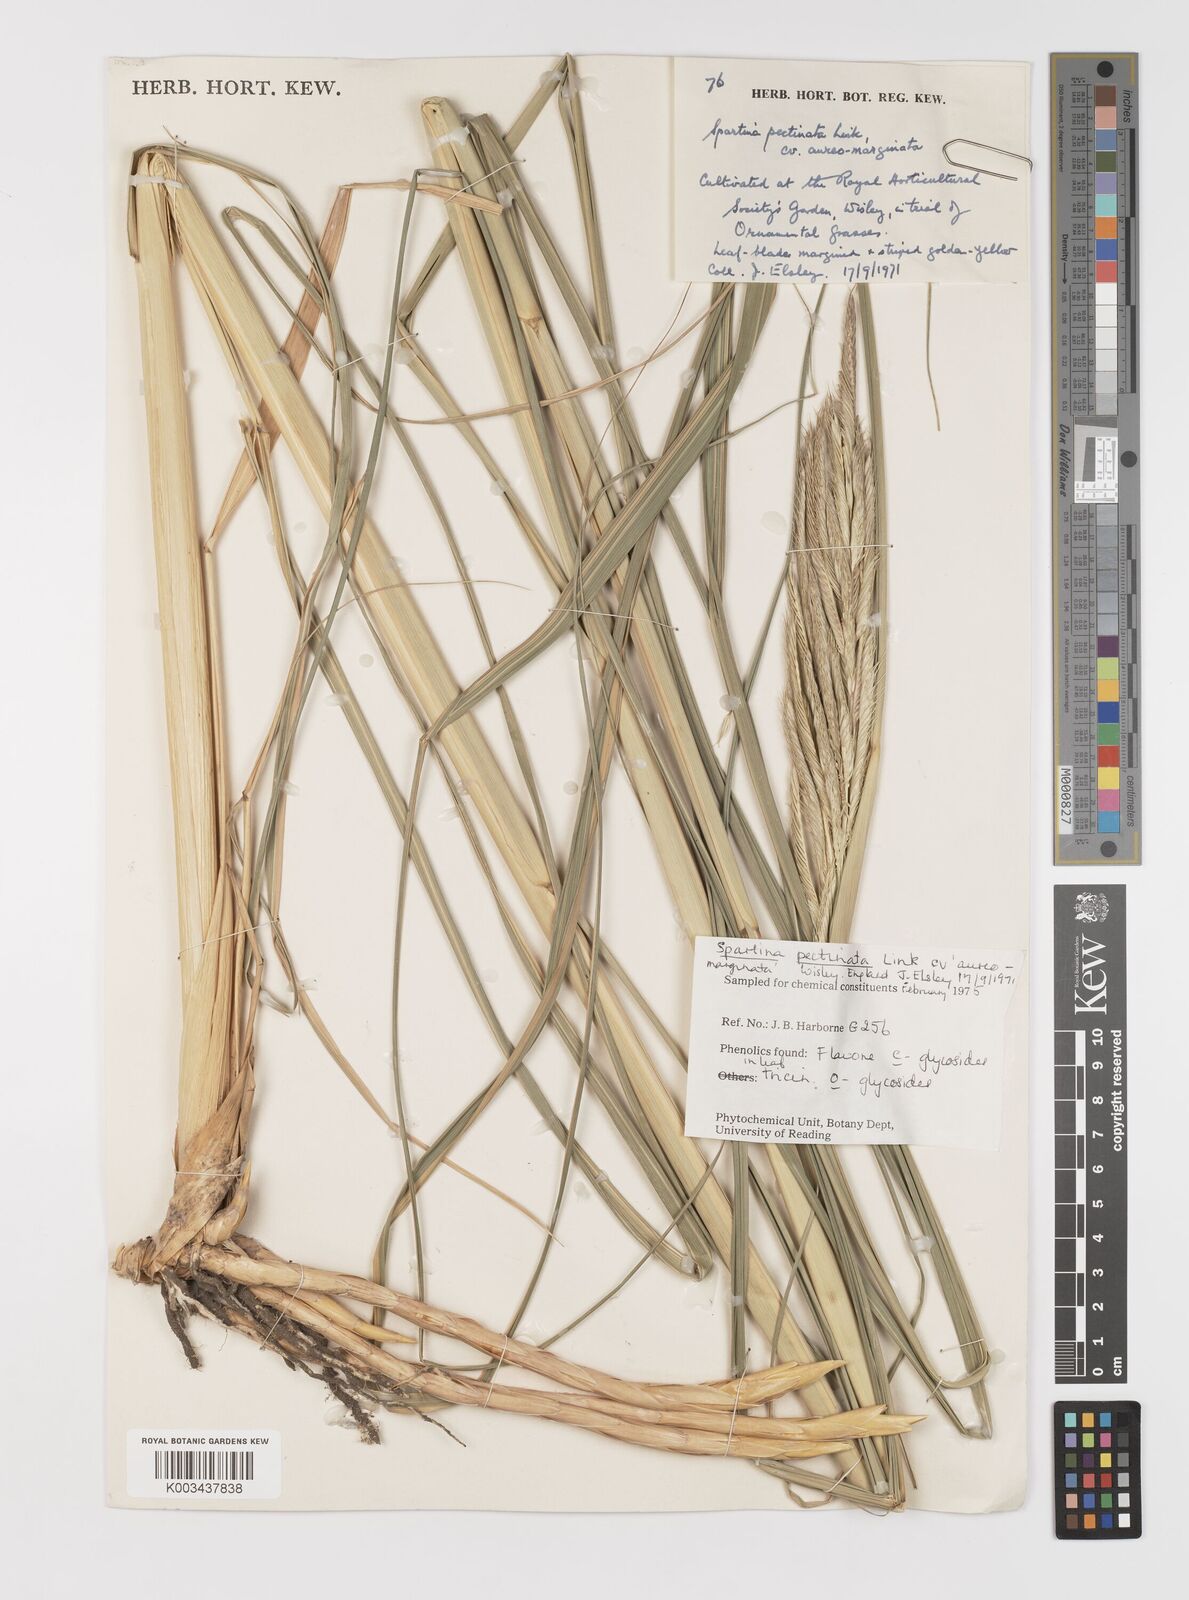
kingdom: Plantae
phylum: Tracheophyta
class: Liliopsida
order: Poales
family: Poaceae
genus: Sporobolus
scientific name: Sporobolus michauxianus
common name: Freshwater cordgrass
